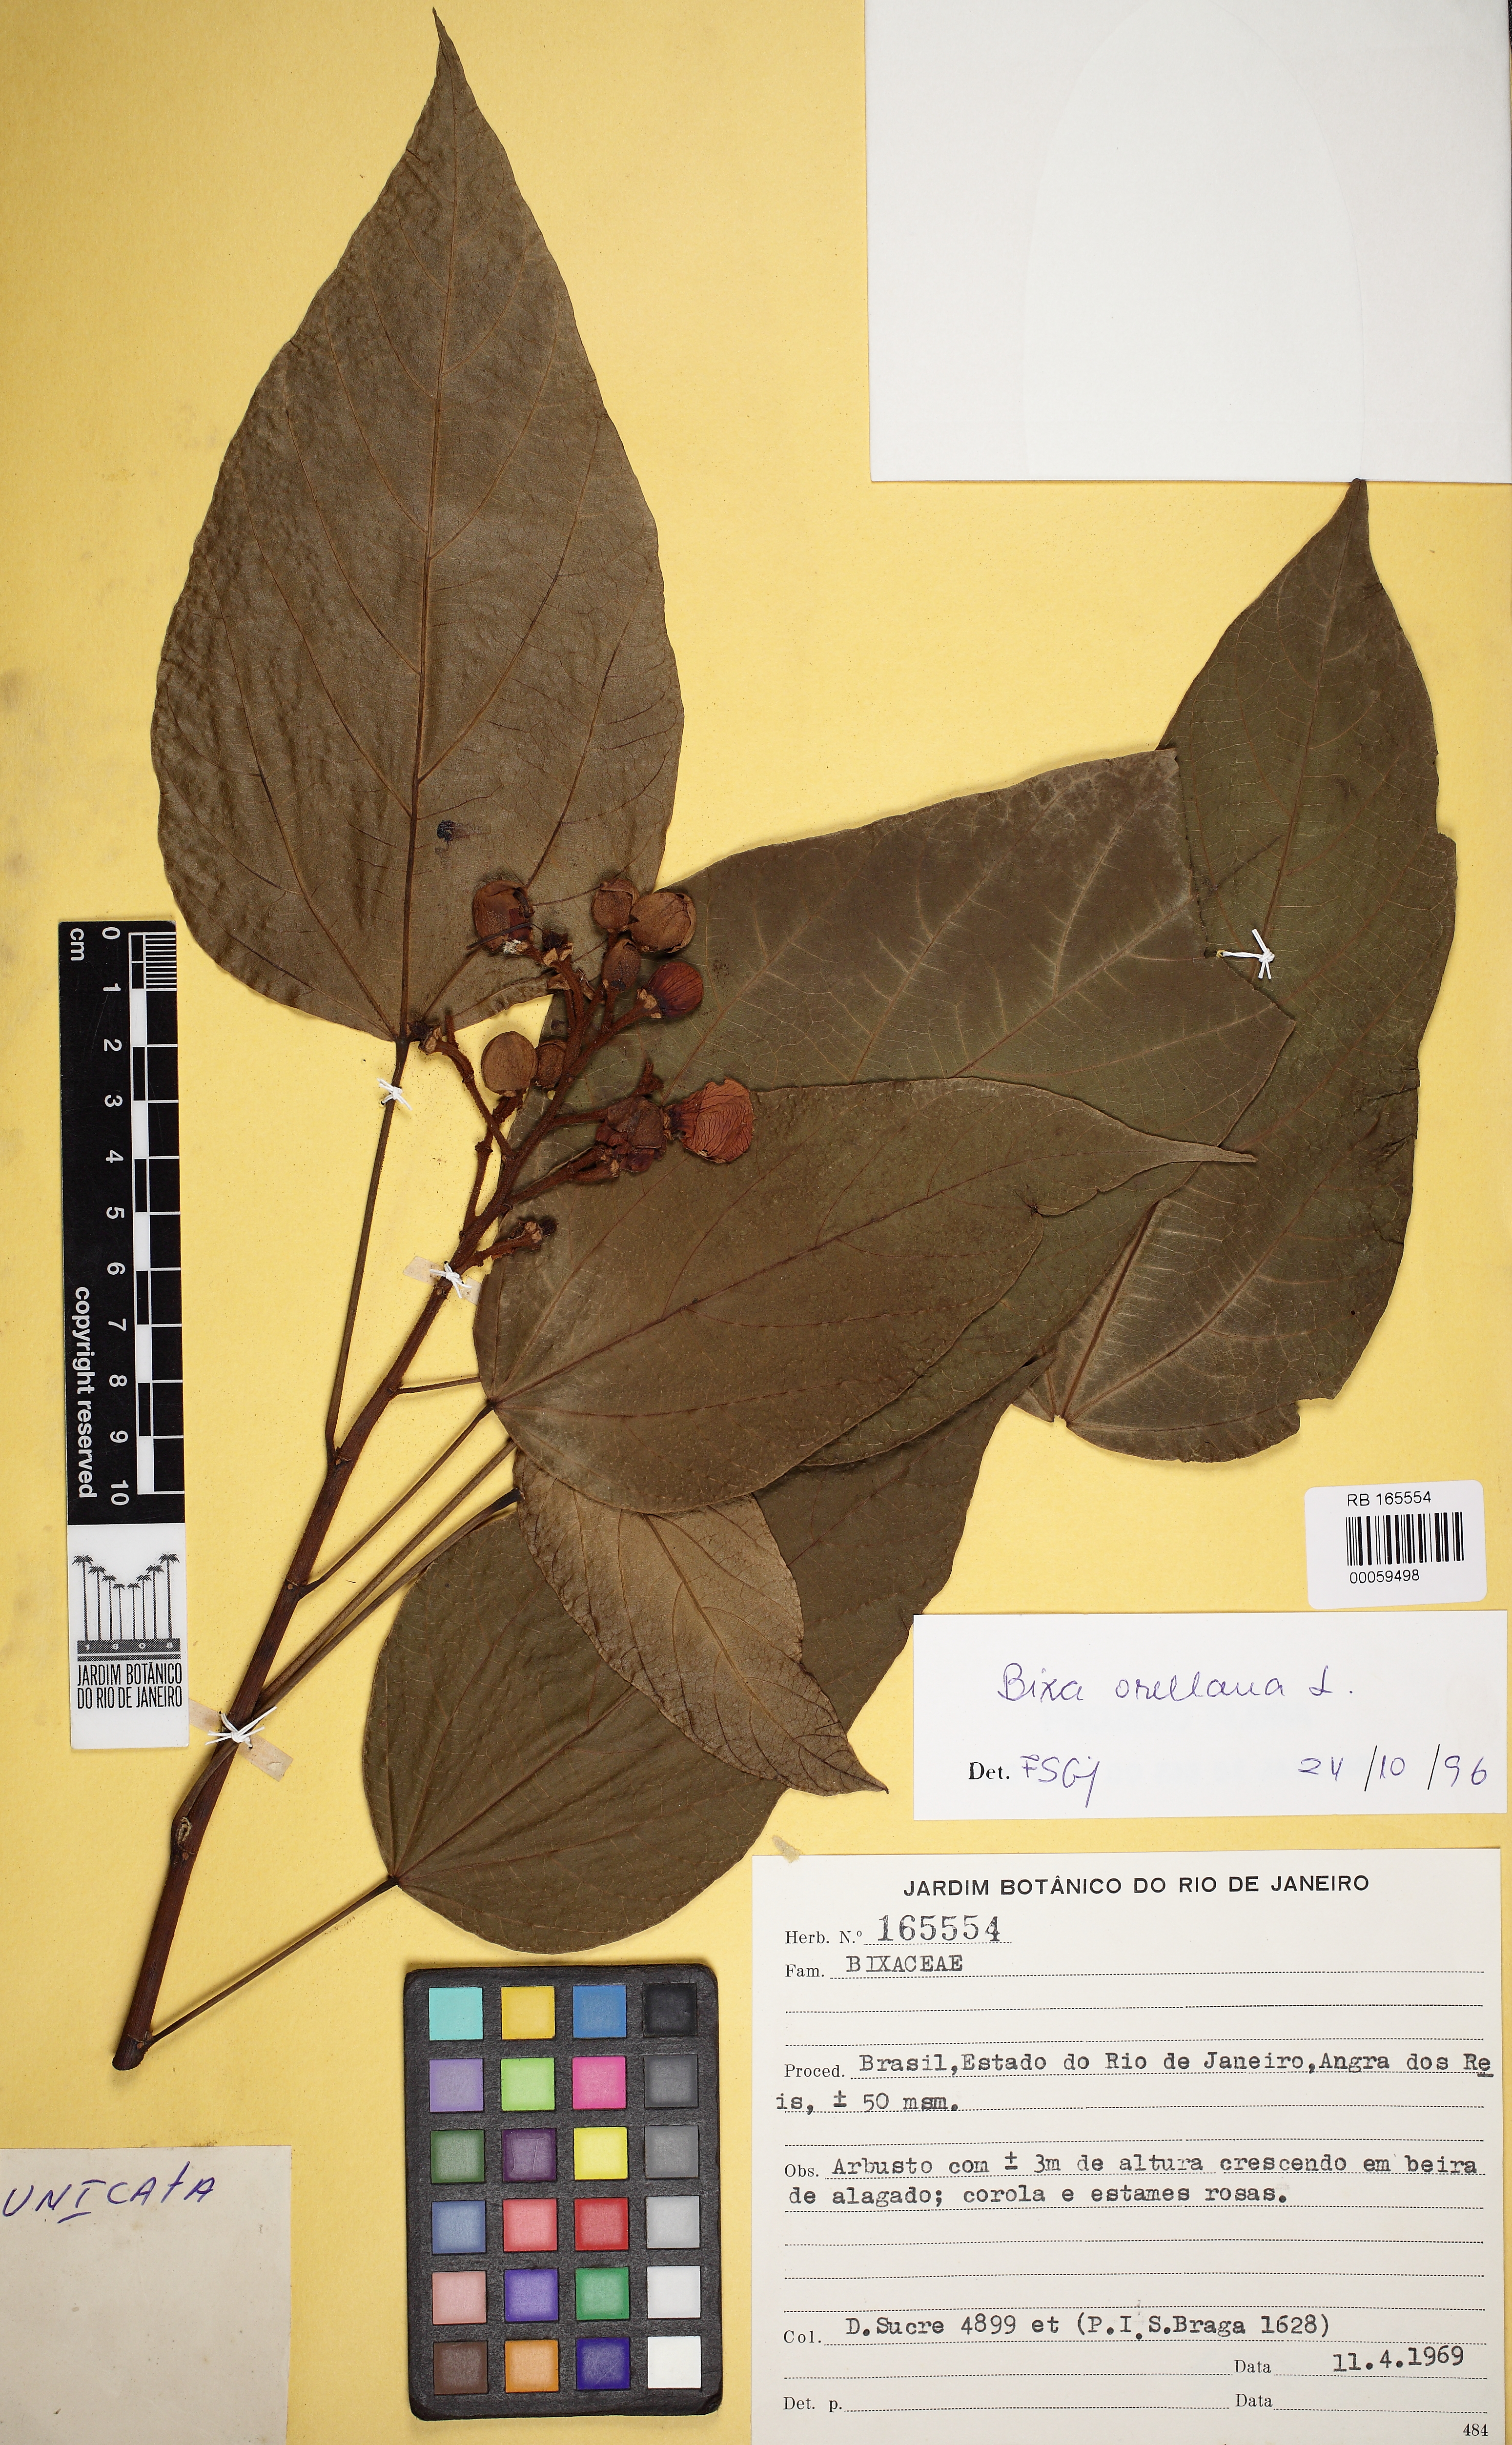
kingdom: Plantae
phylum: Tracheophyta
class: Magnoliopsida
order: Malvales
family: Bixaceae
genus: Bixa
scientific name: Bixa orellana
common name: Lipsticktree
